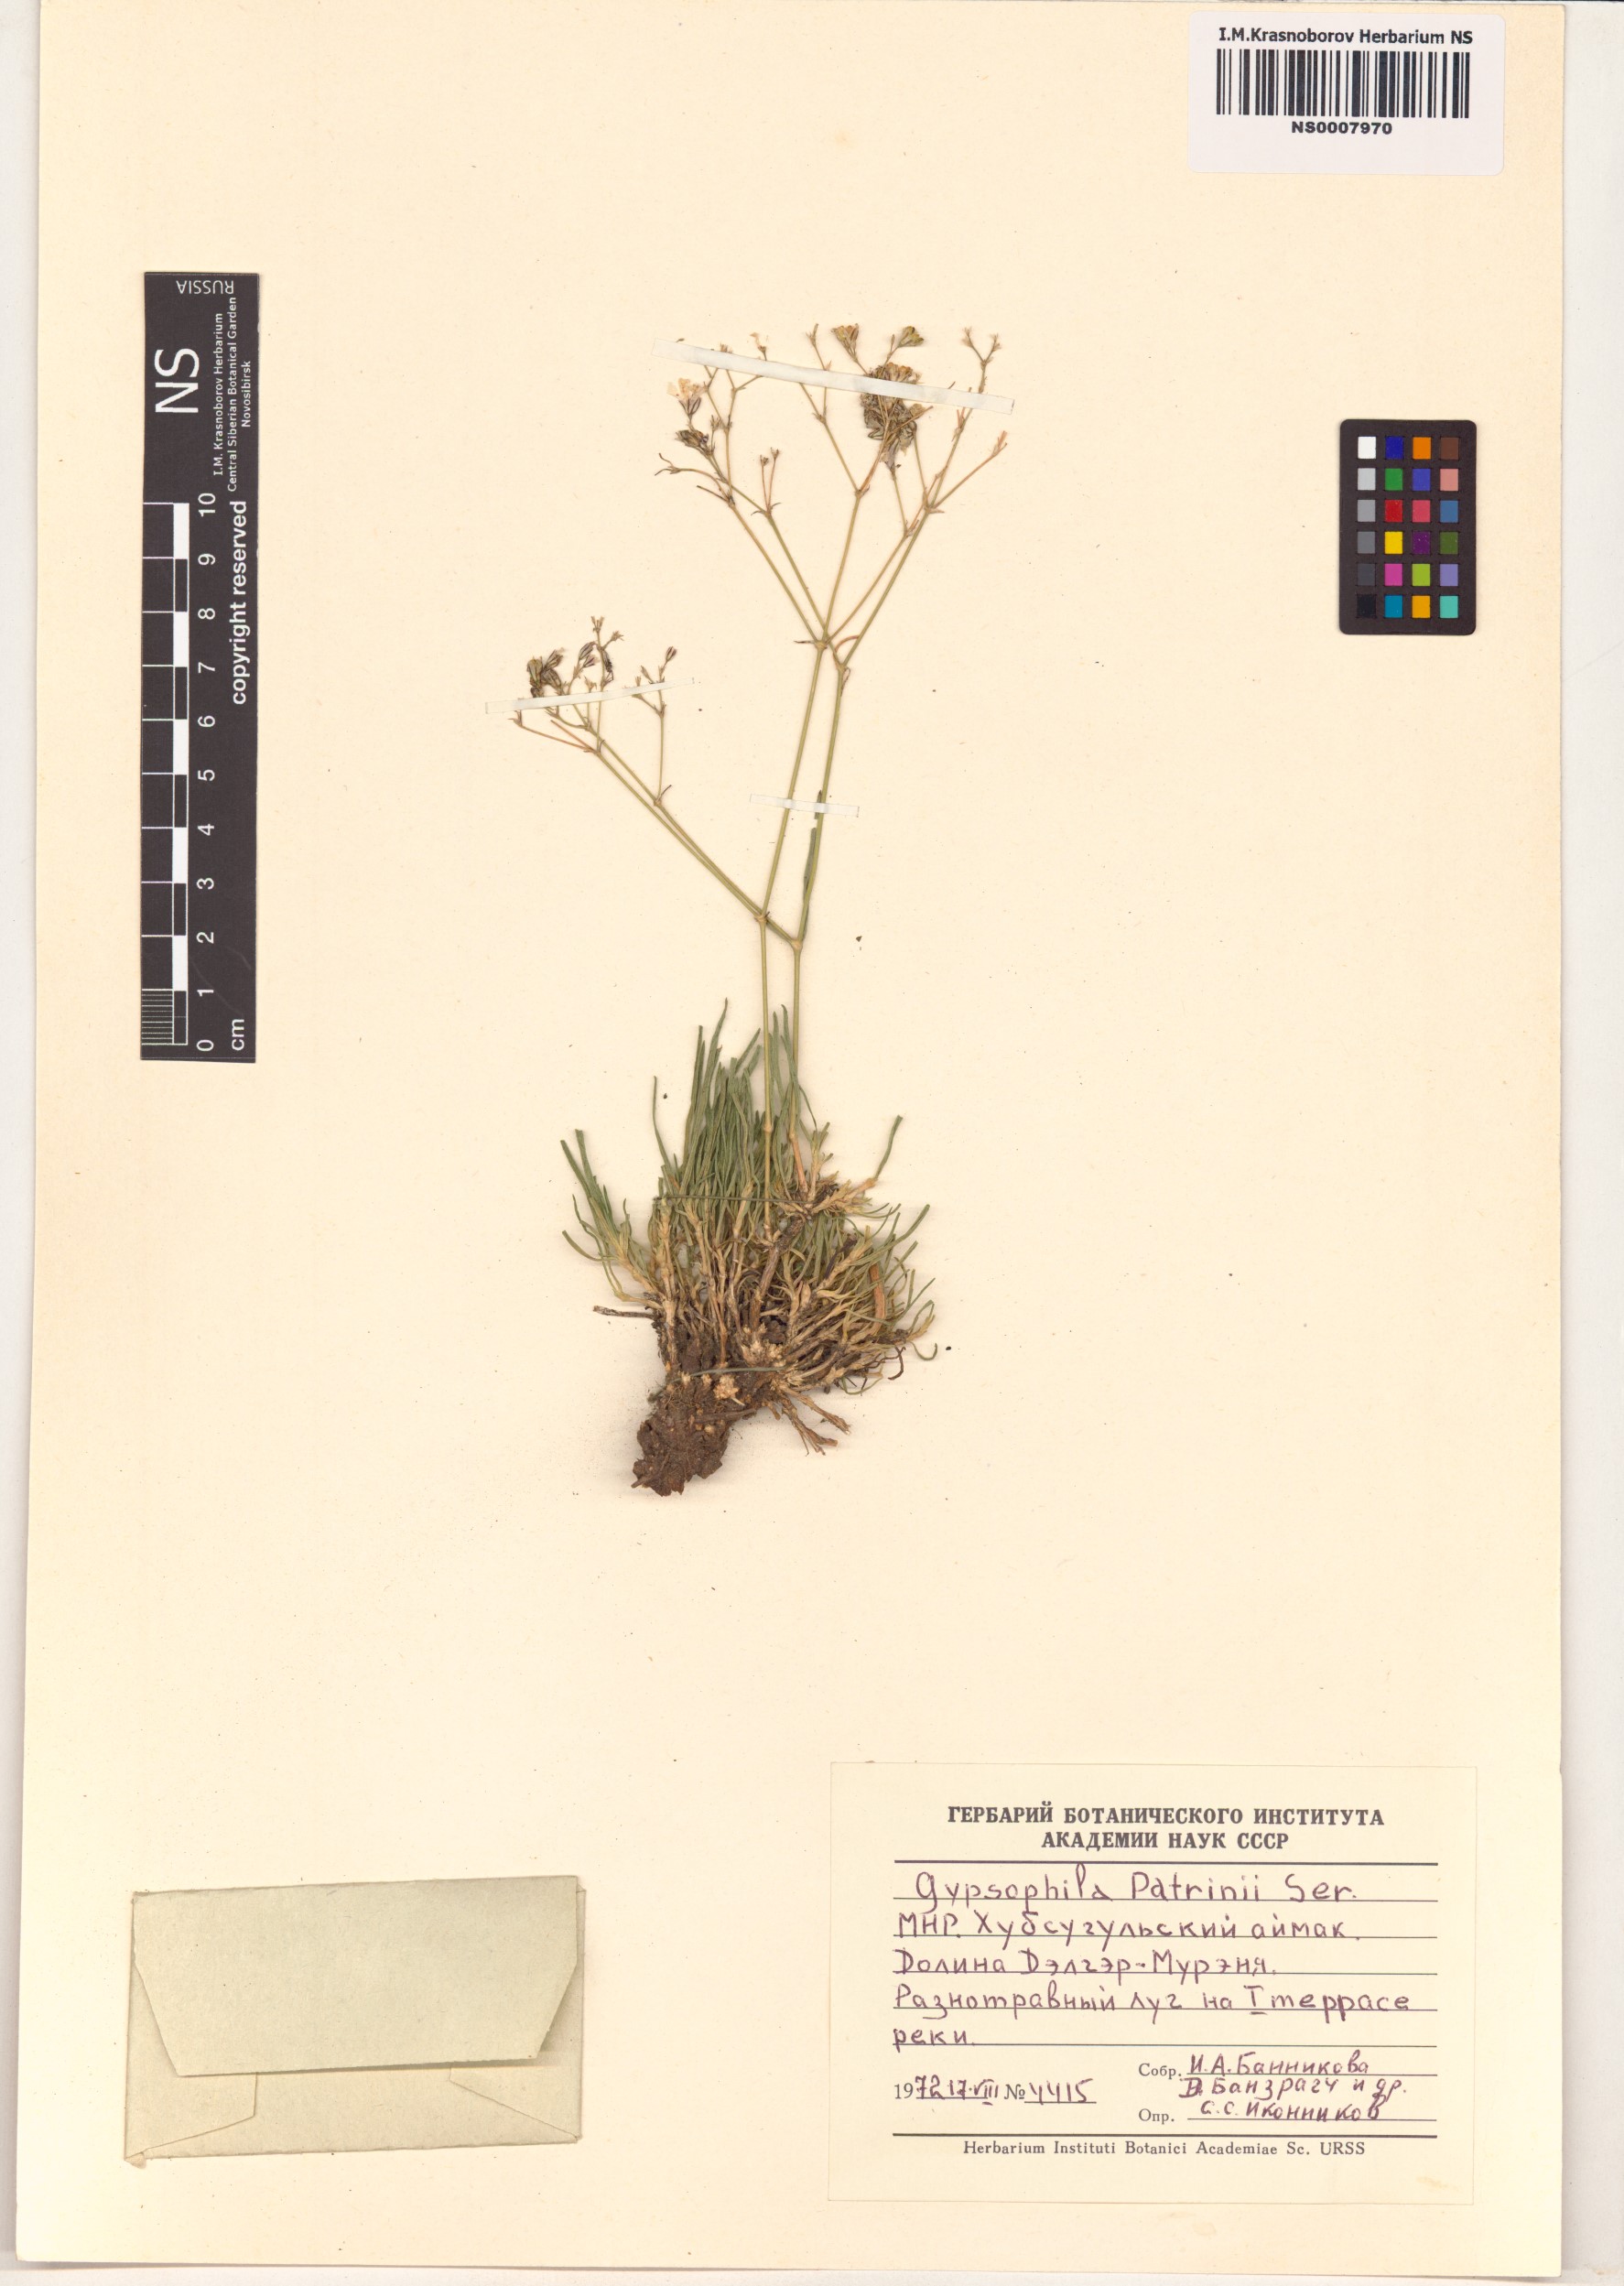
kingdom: Plantae
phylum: Tracheophyta
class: Magnoliopsida
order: Caryophyllales
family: Caryophyllaceae
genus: Gypsophila
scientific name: Gypsophila patrinii
